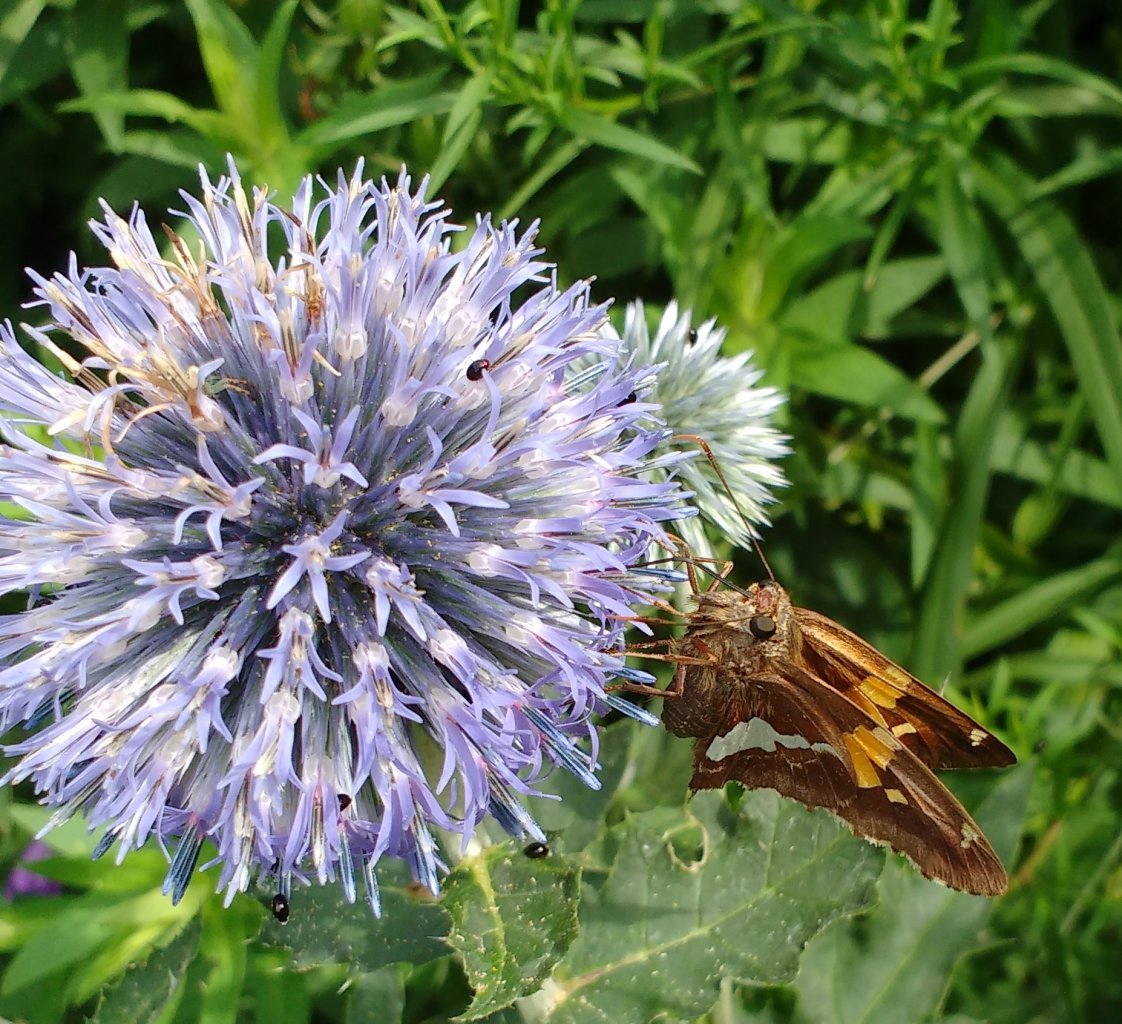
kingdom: Animalia
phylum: Arthropoda
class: Insecta
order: Lepidoptera
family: Hesperiidae
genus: Epargyreus
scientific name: Epargyreus clarus
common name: Silver-spotted Skipper
